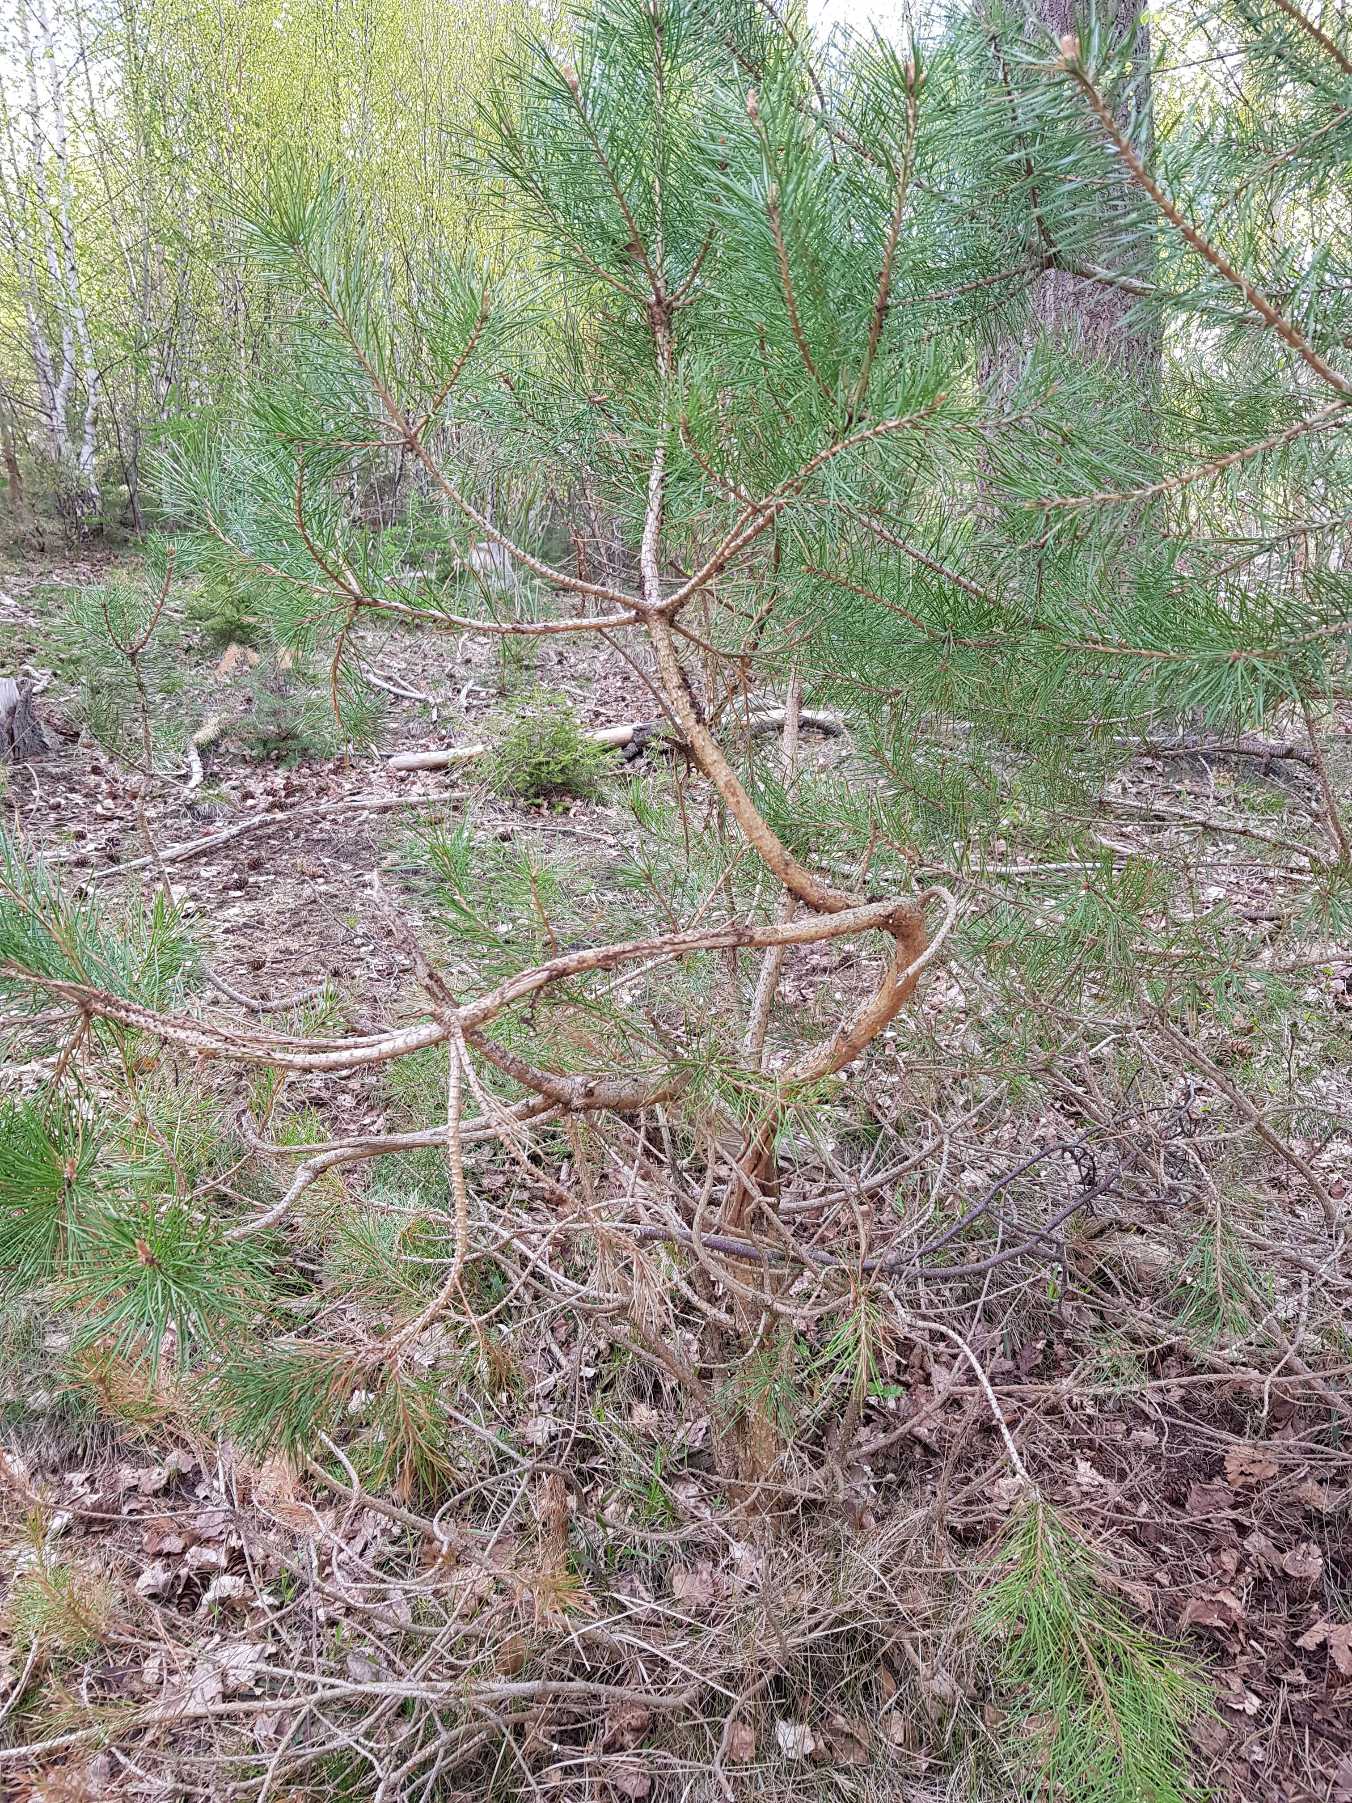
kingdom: Plantae
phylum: Tracheophyta
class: Pinopsida
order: Pinales
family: Pinaceae
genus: Pinus
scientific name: Pinus sylvestris
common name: Skov-fyr
